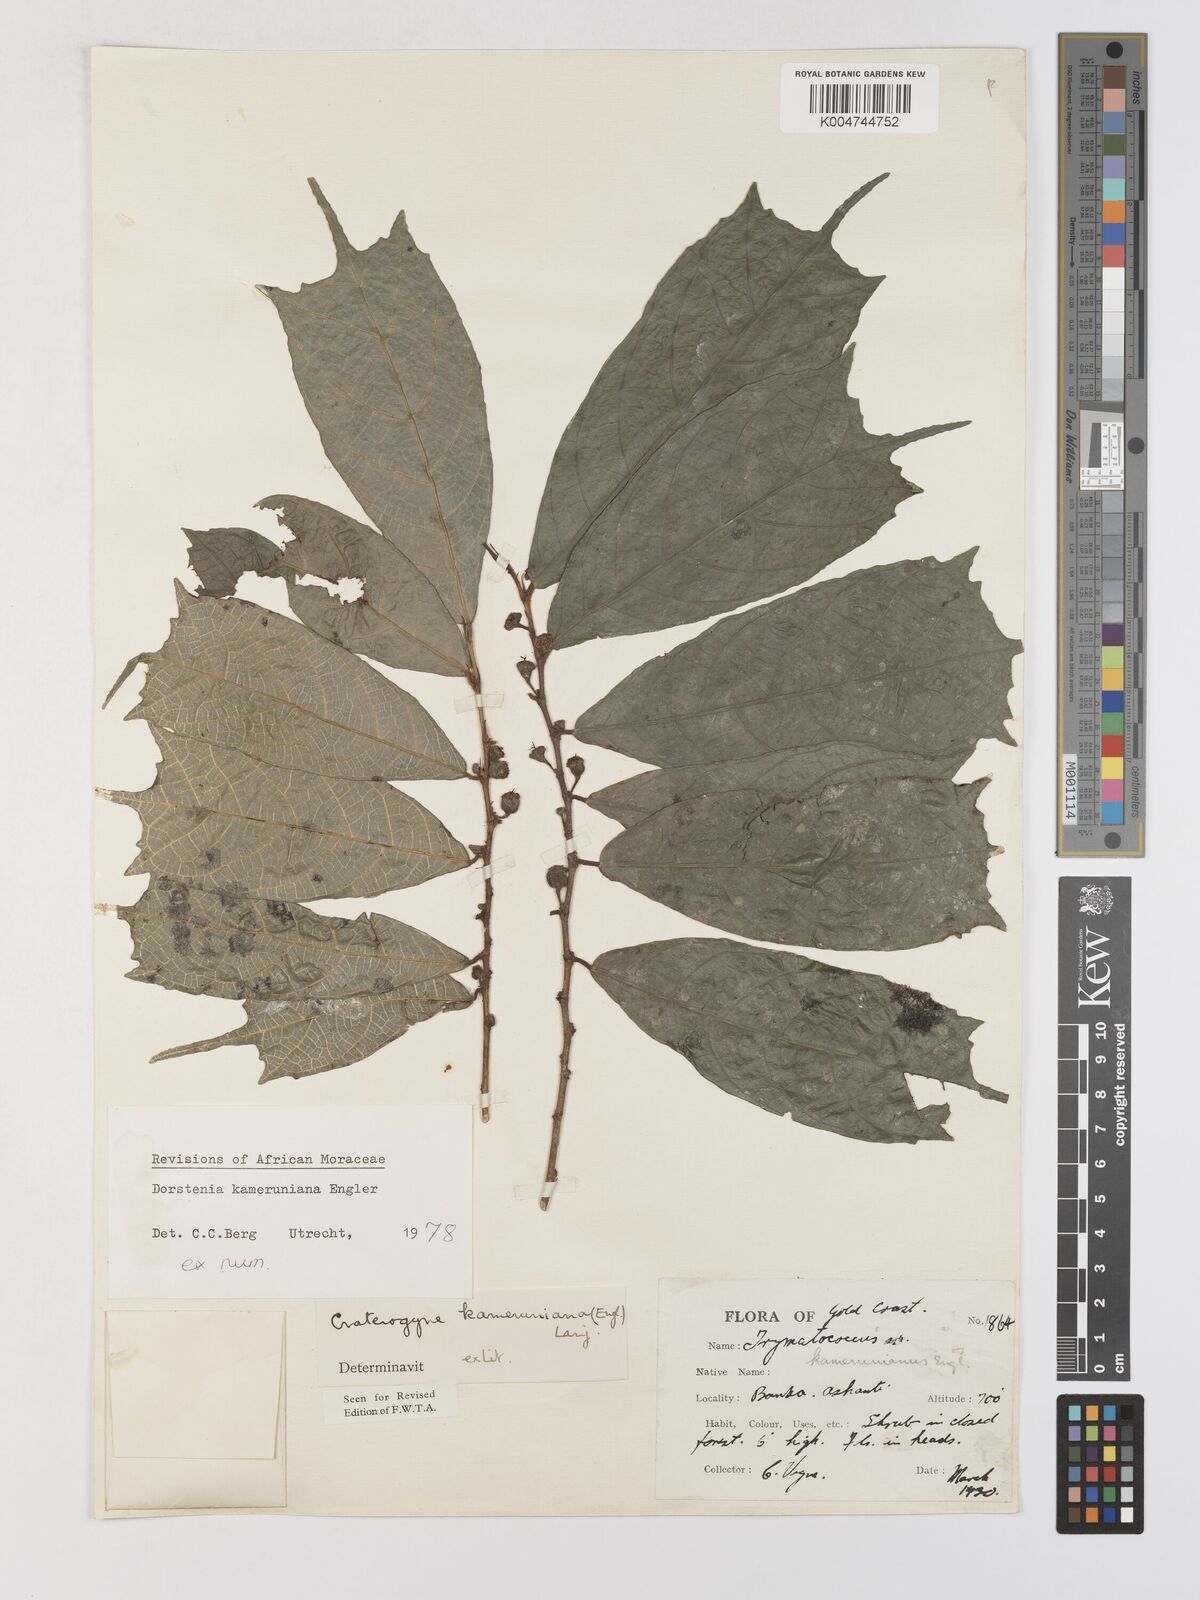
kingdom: Plantae
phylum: Tracheophyta
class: Magnoliopsida
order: Rosales
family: Moraceae
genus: Dorstenia
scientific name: Dorstenia kameruniana
